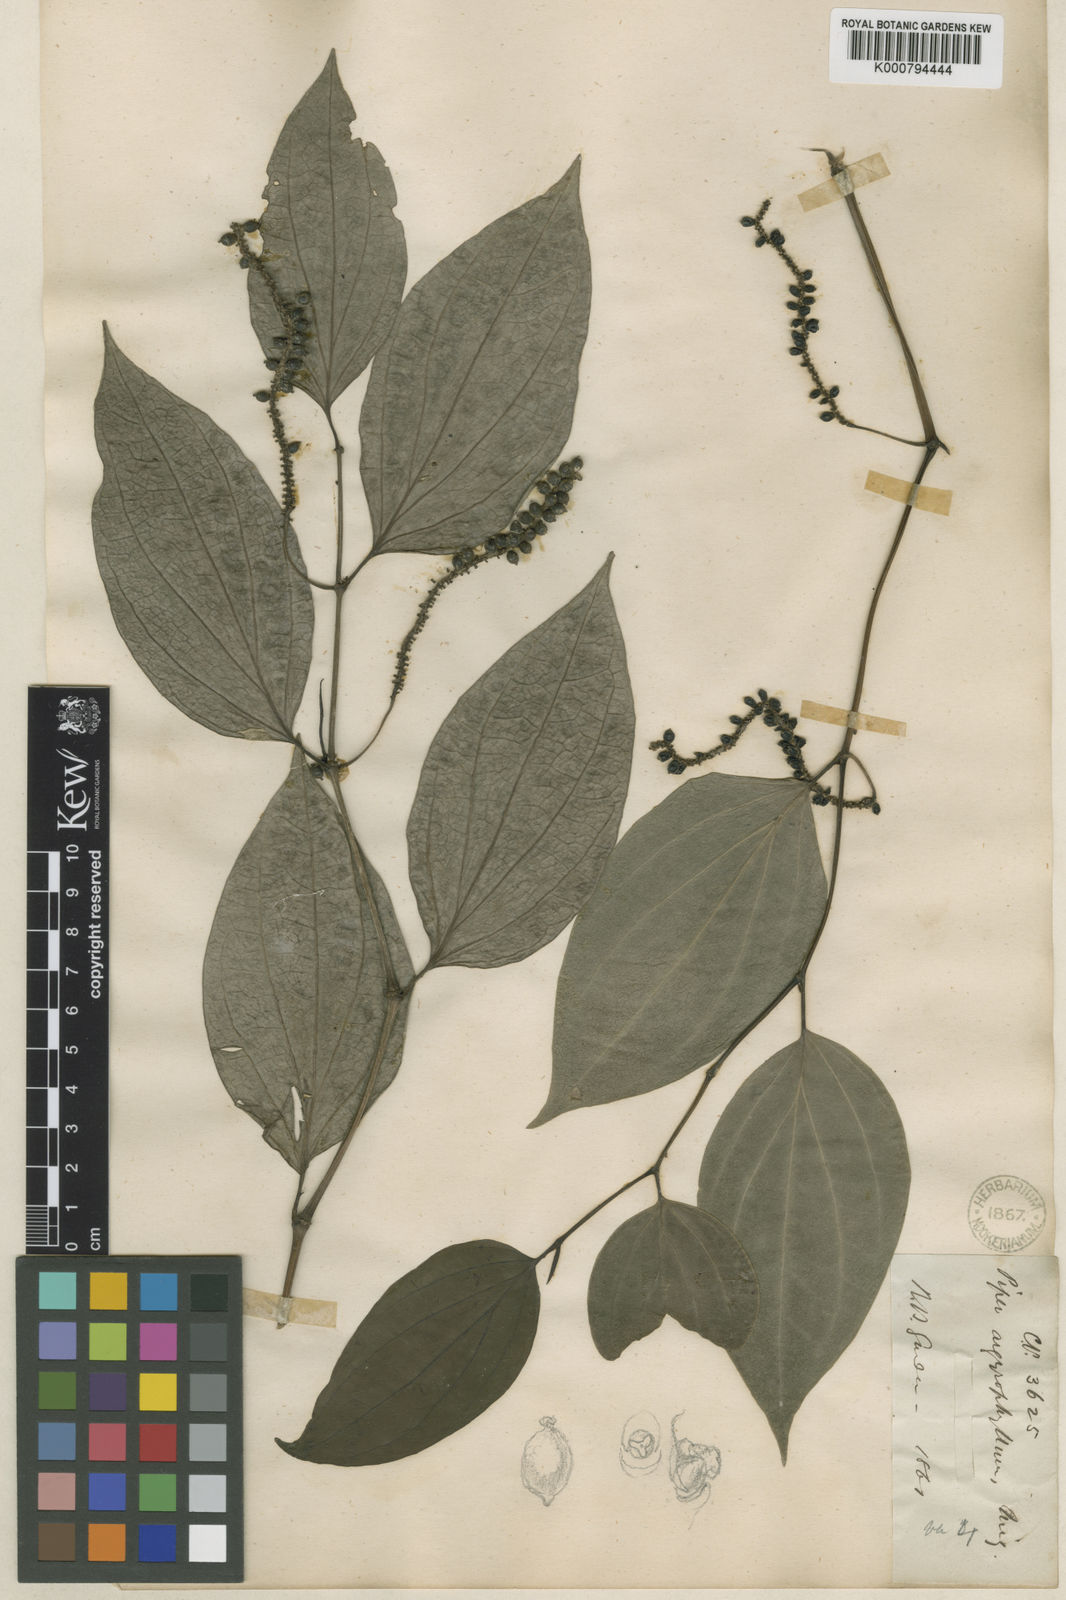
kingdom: Plantae
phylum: Tracheophyta
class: Magnoliopsida
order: Piperales
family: Piperaceae
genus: Piper
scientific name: Piper argyrophyllum
